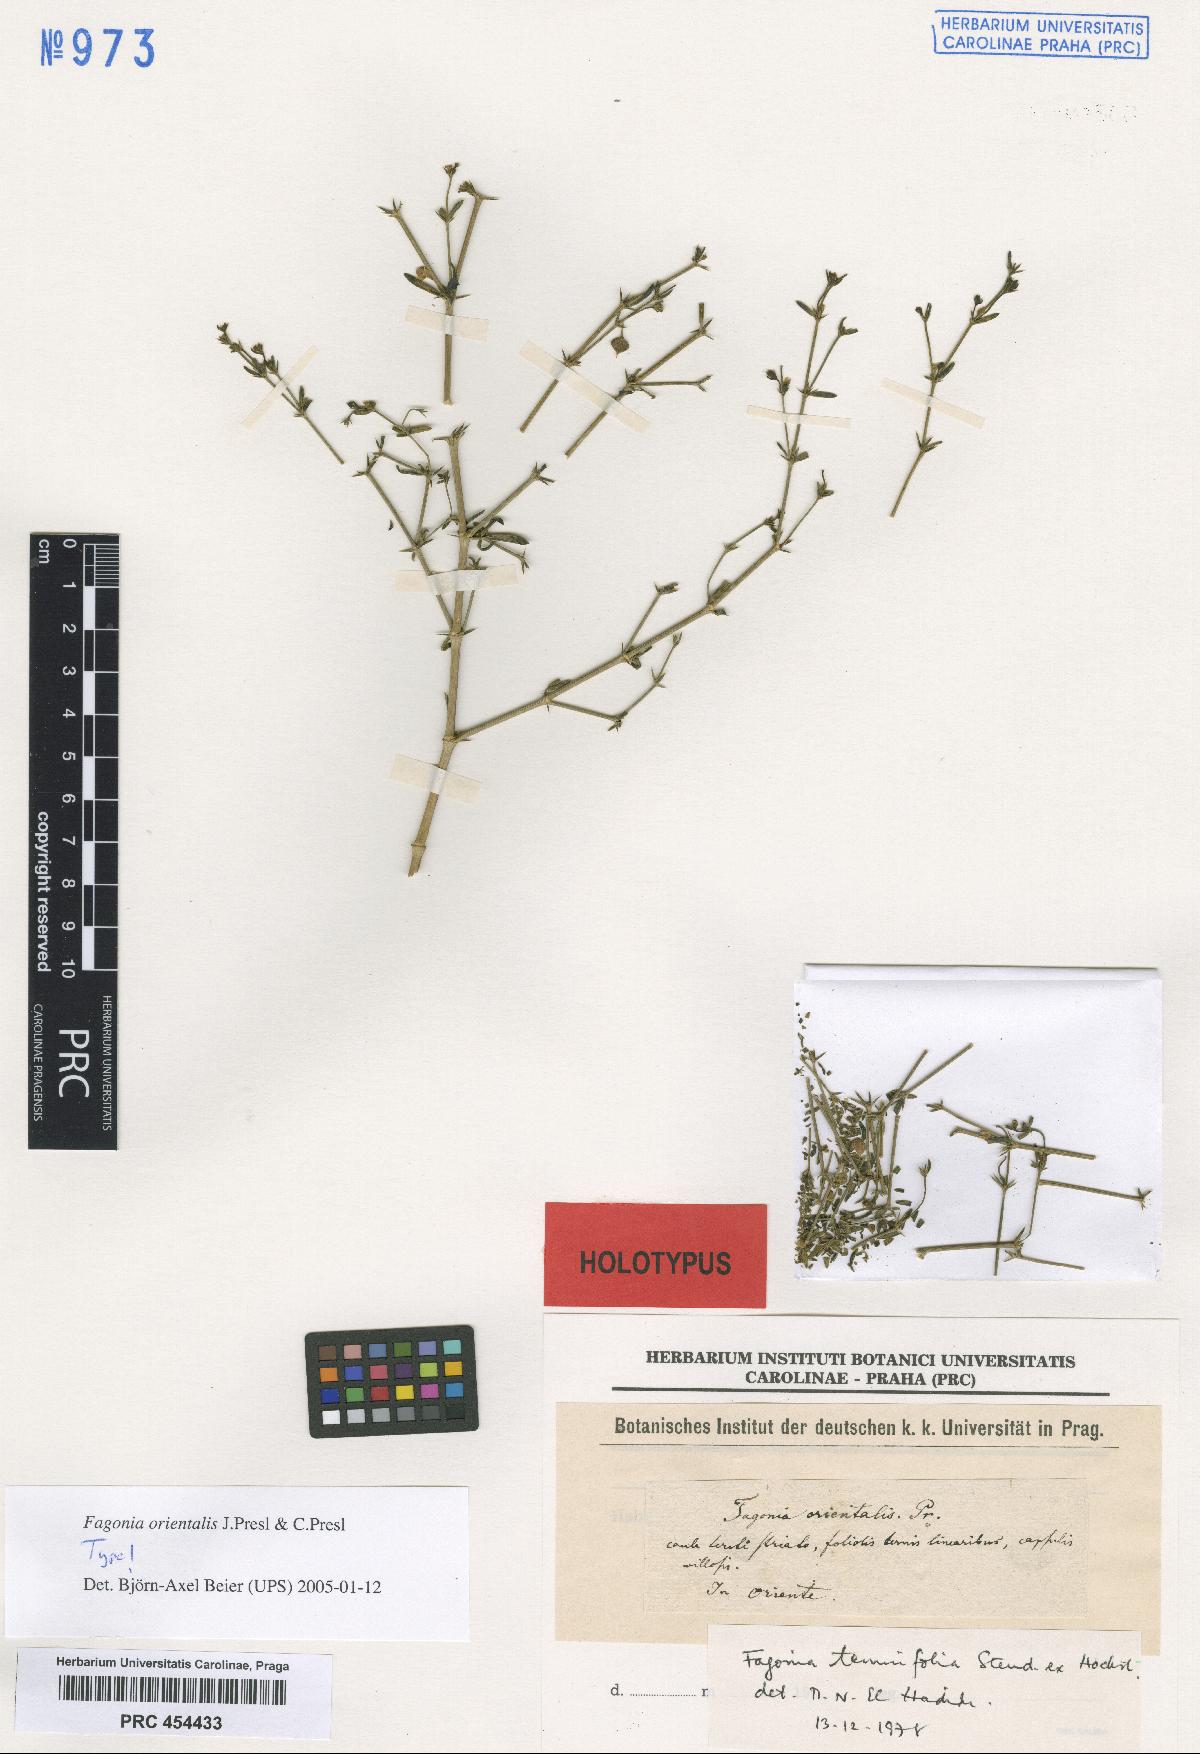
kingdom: Plantae
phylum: Tracheophyta
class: Magnoliopsida
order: Zygophyllales
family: Zygophyllaceae
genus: Fagonia
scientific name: Fagonia orientalis
